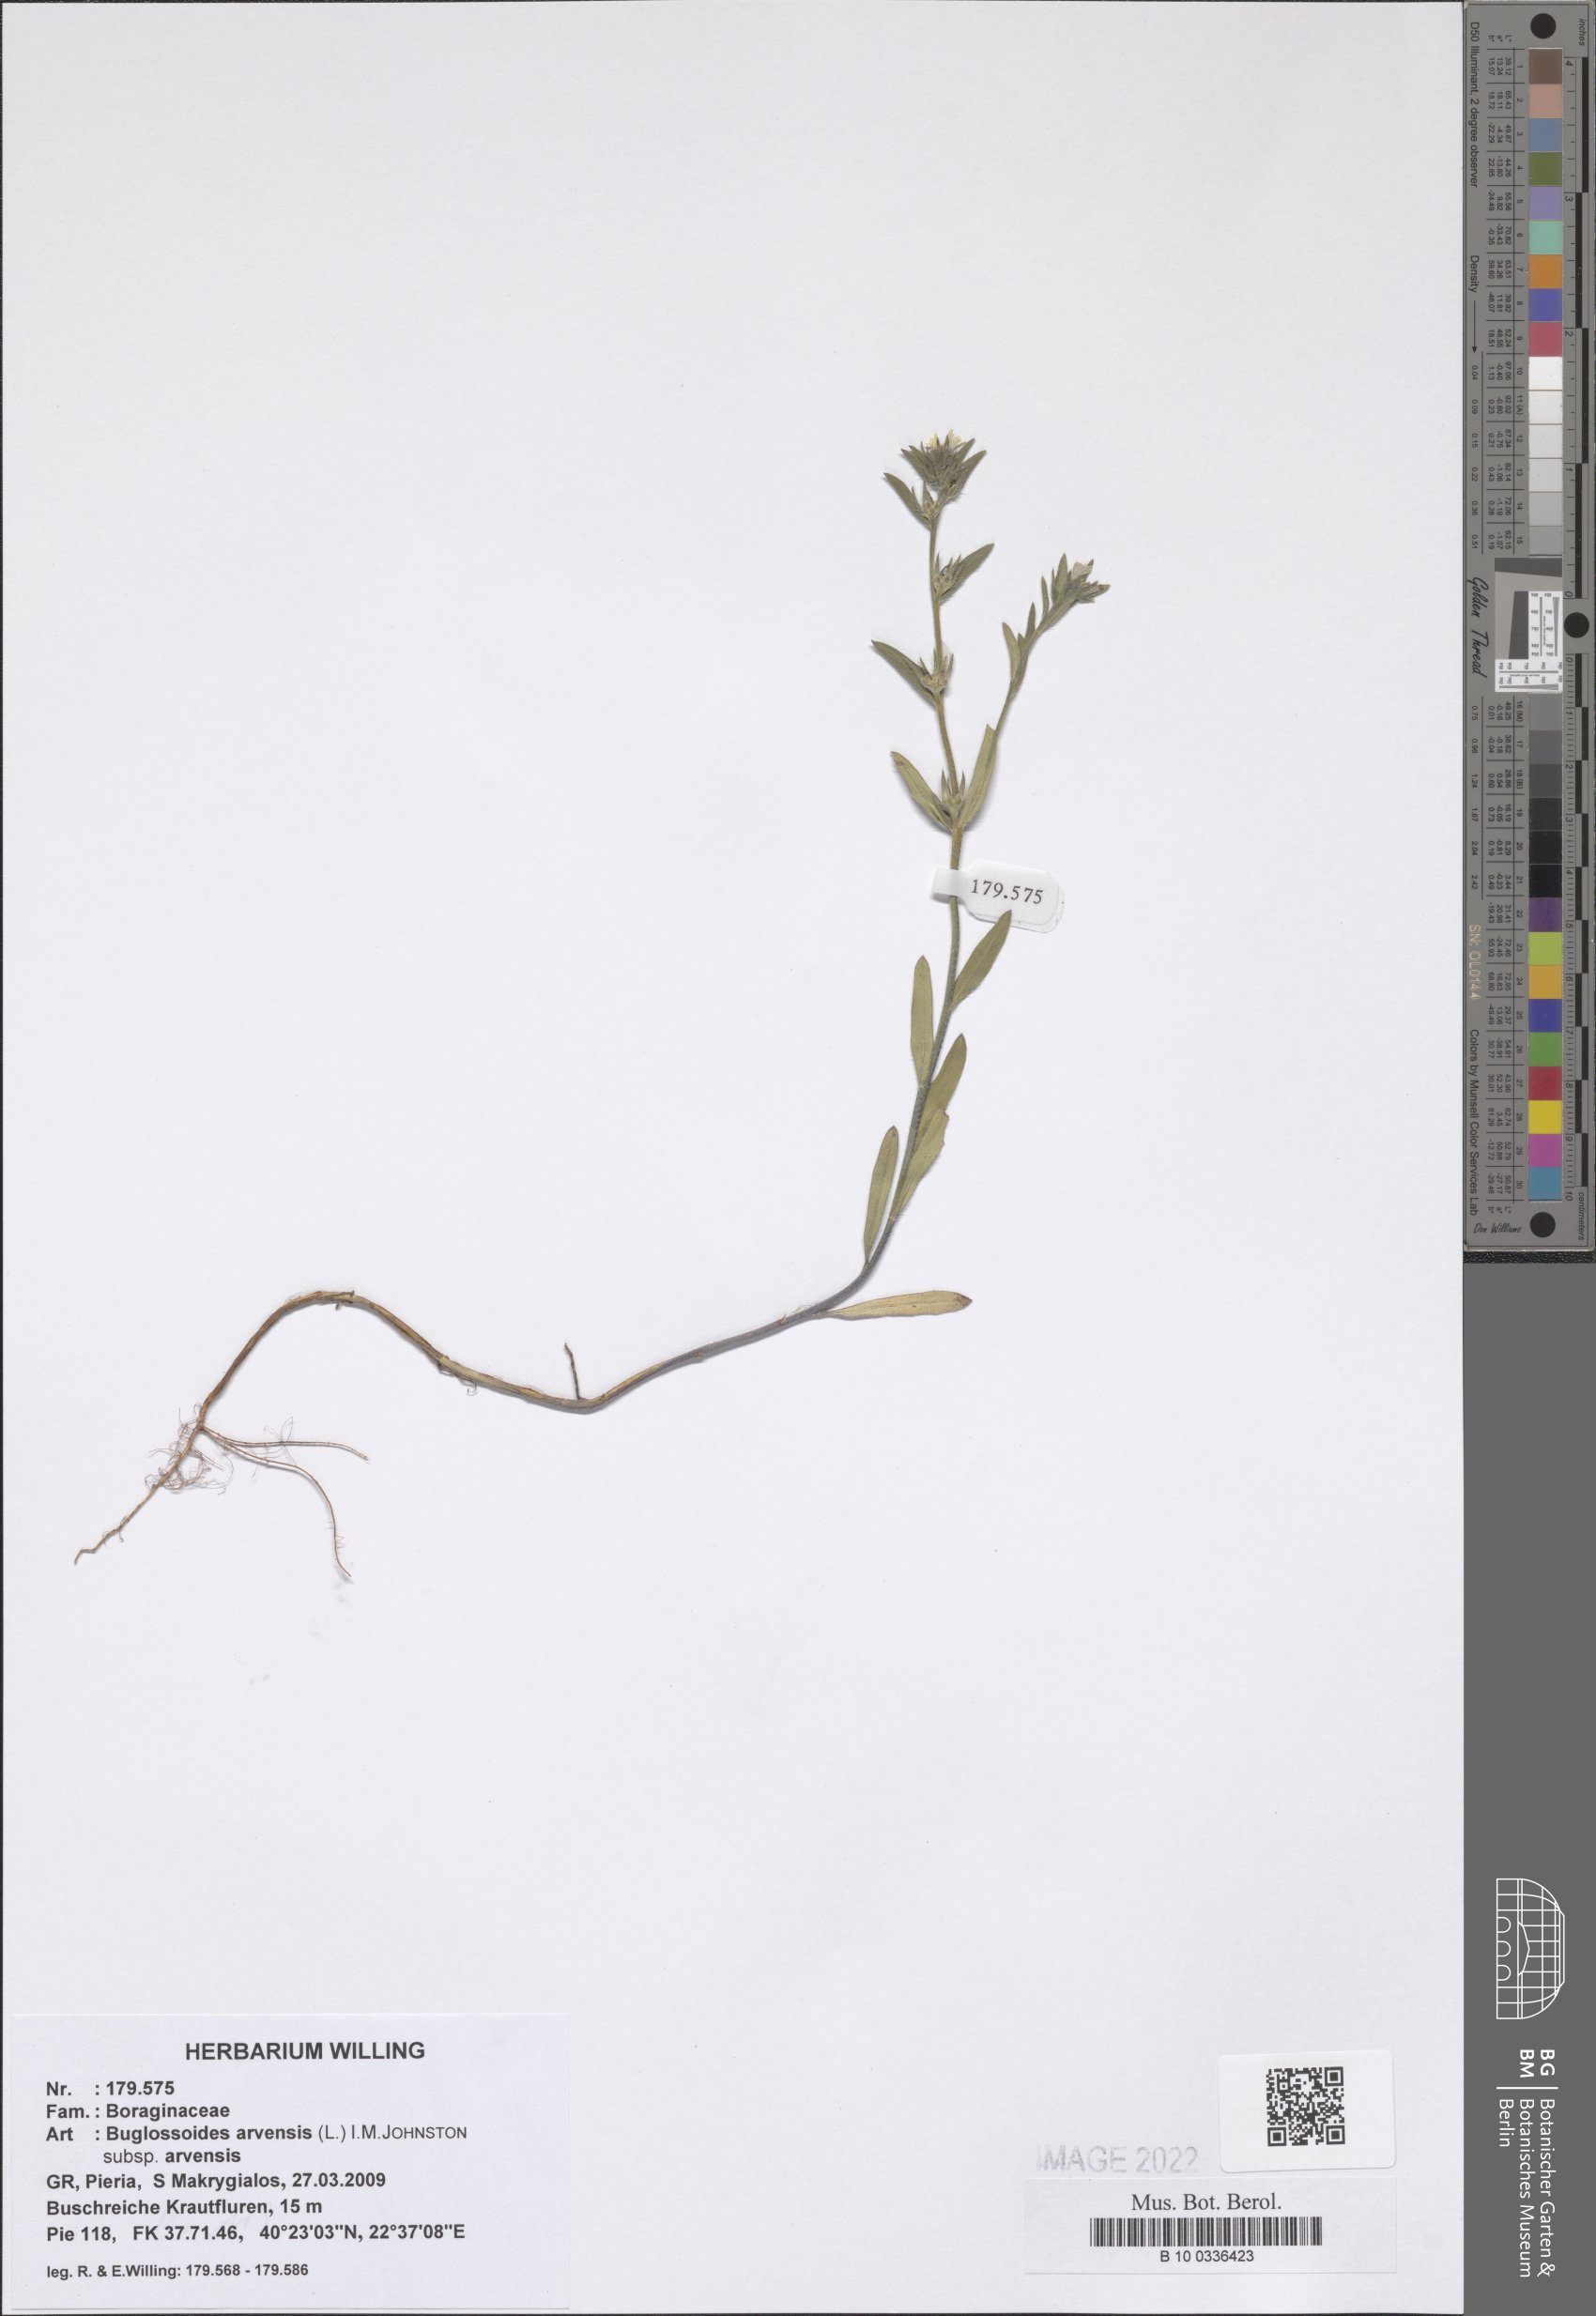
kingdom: Plantae
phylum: Tracheophyta
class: Magnoliopsida
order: Boraginales
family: Boraginaceae
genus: Buglossoides
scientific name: Buglossoides arvensis
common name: Corn gromwell
